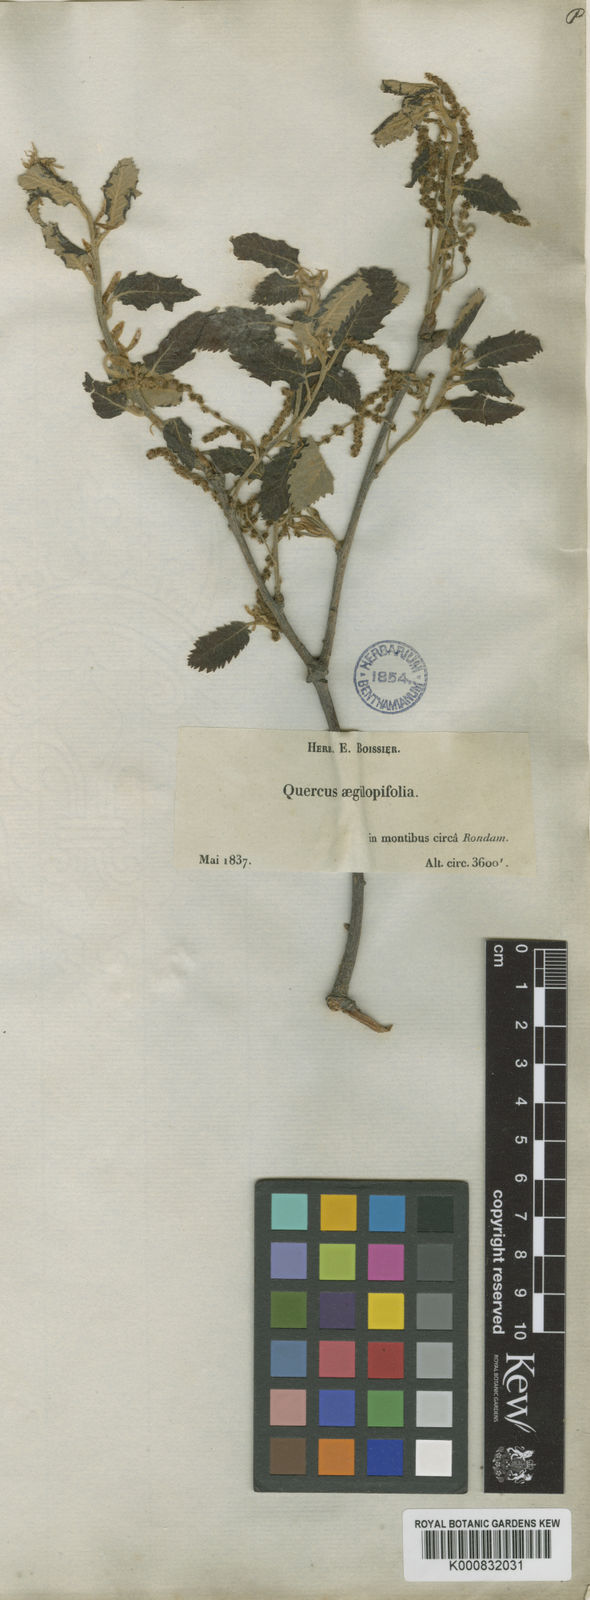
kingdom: Plantae
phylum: Tracheophyta
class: Magnoliopsida
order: Fagales
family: Fagaceae
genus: Quercus
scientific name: Quercus faginea
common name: Gall oak tree
